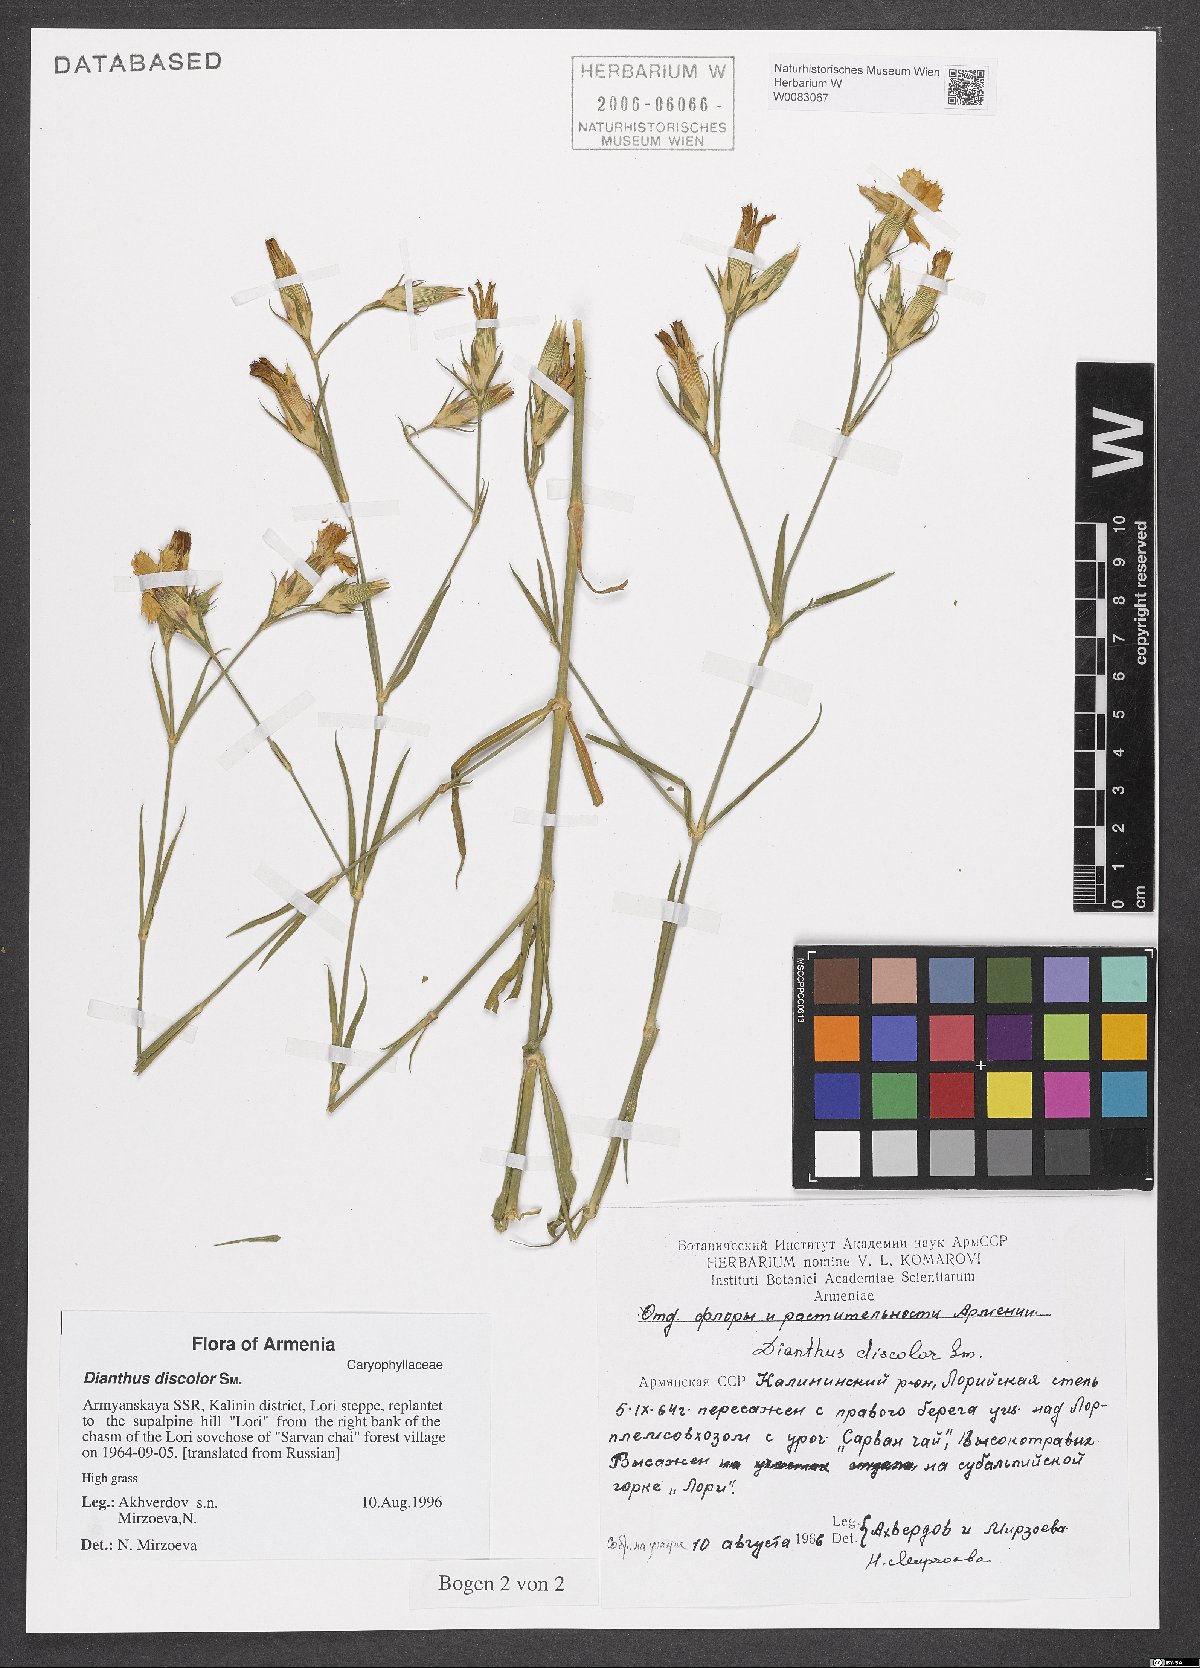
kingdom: Plantae
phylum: Tracheophyta
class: Magnoliopsida
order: Caryophyllales
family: Caryophyllaceae
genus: Dianthus
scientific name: Dianthus caucaseus
